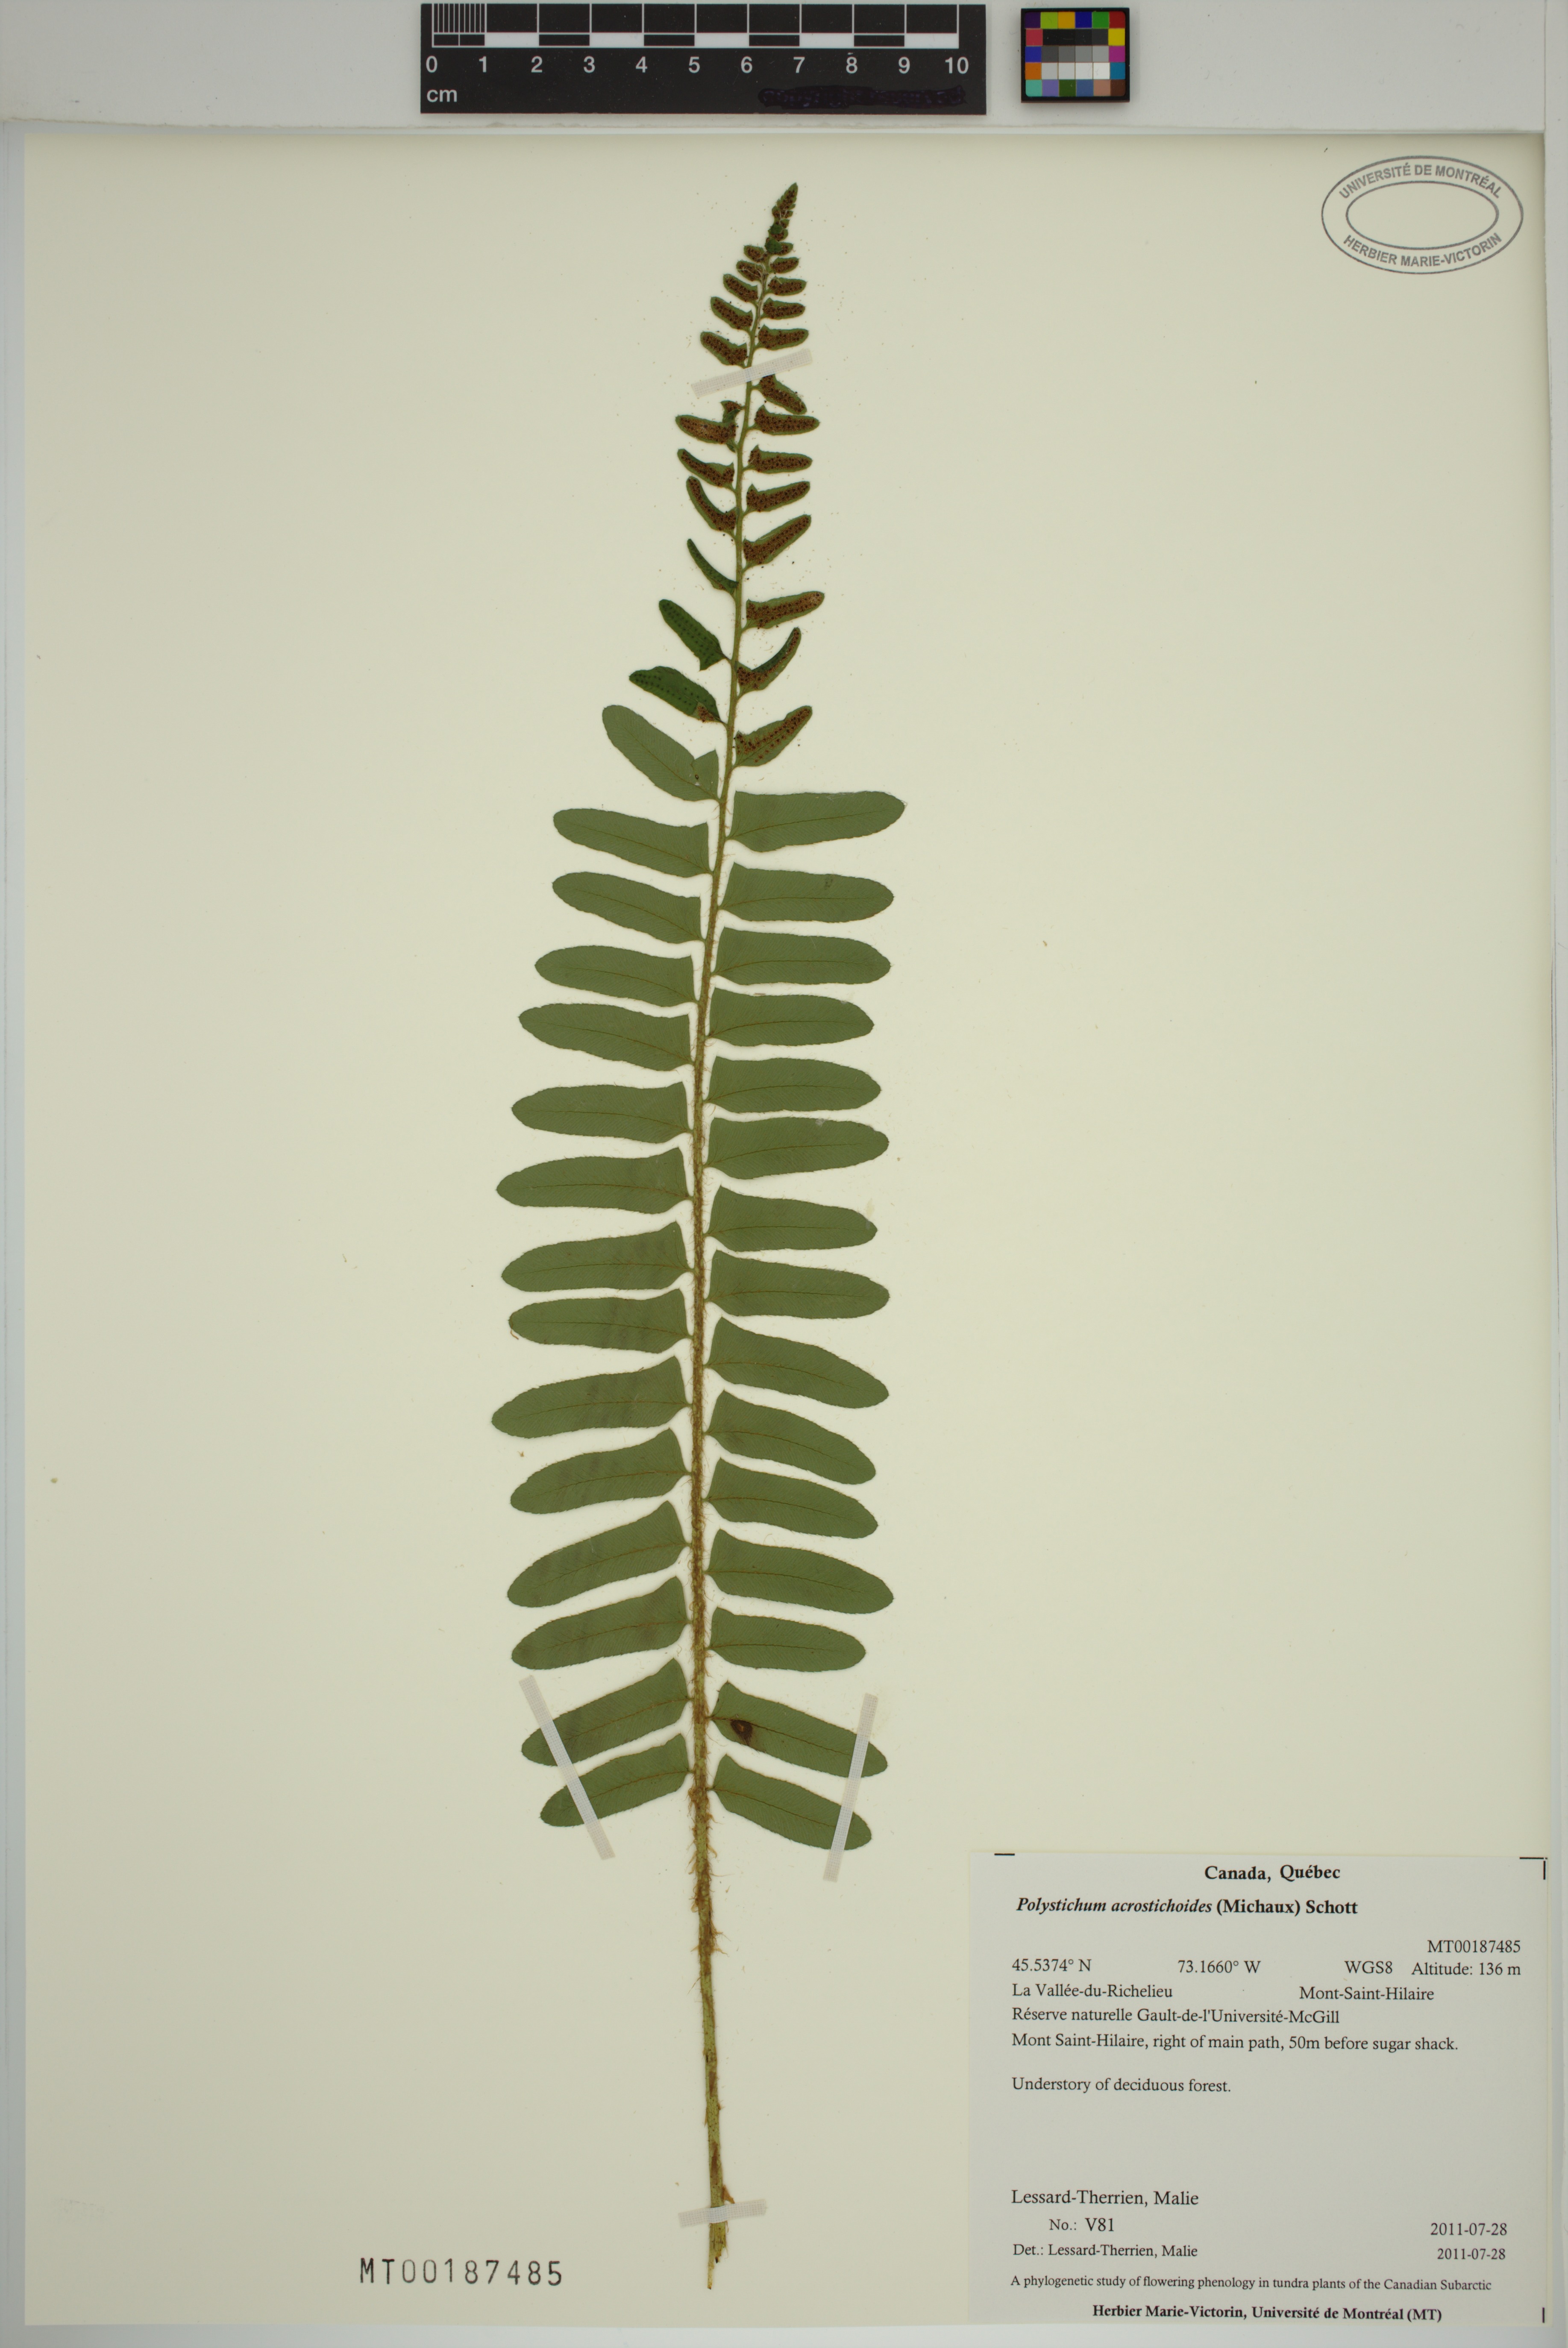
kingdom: Plantae
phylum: Tracheophyta
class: Polypodiopsida
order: Polypodiales
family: Dryopteridaceae
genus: Polystichum
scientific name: Polystichum acrostichoides
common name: Christmas fern
